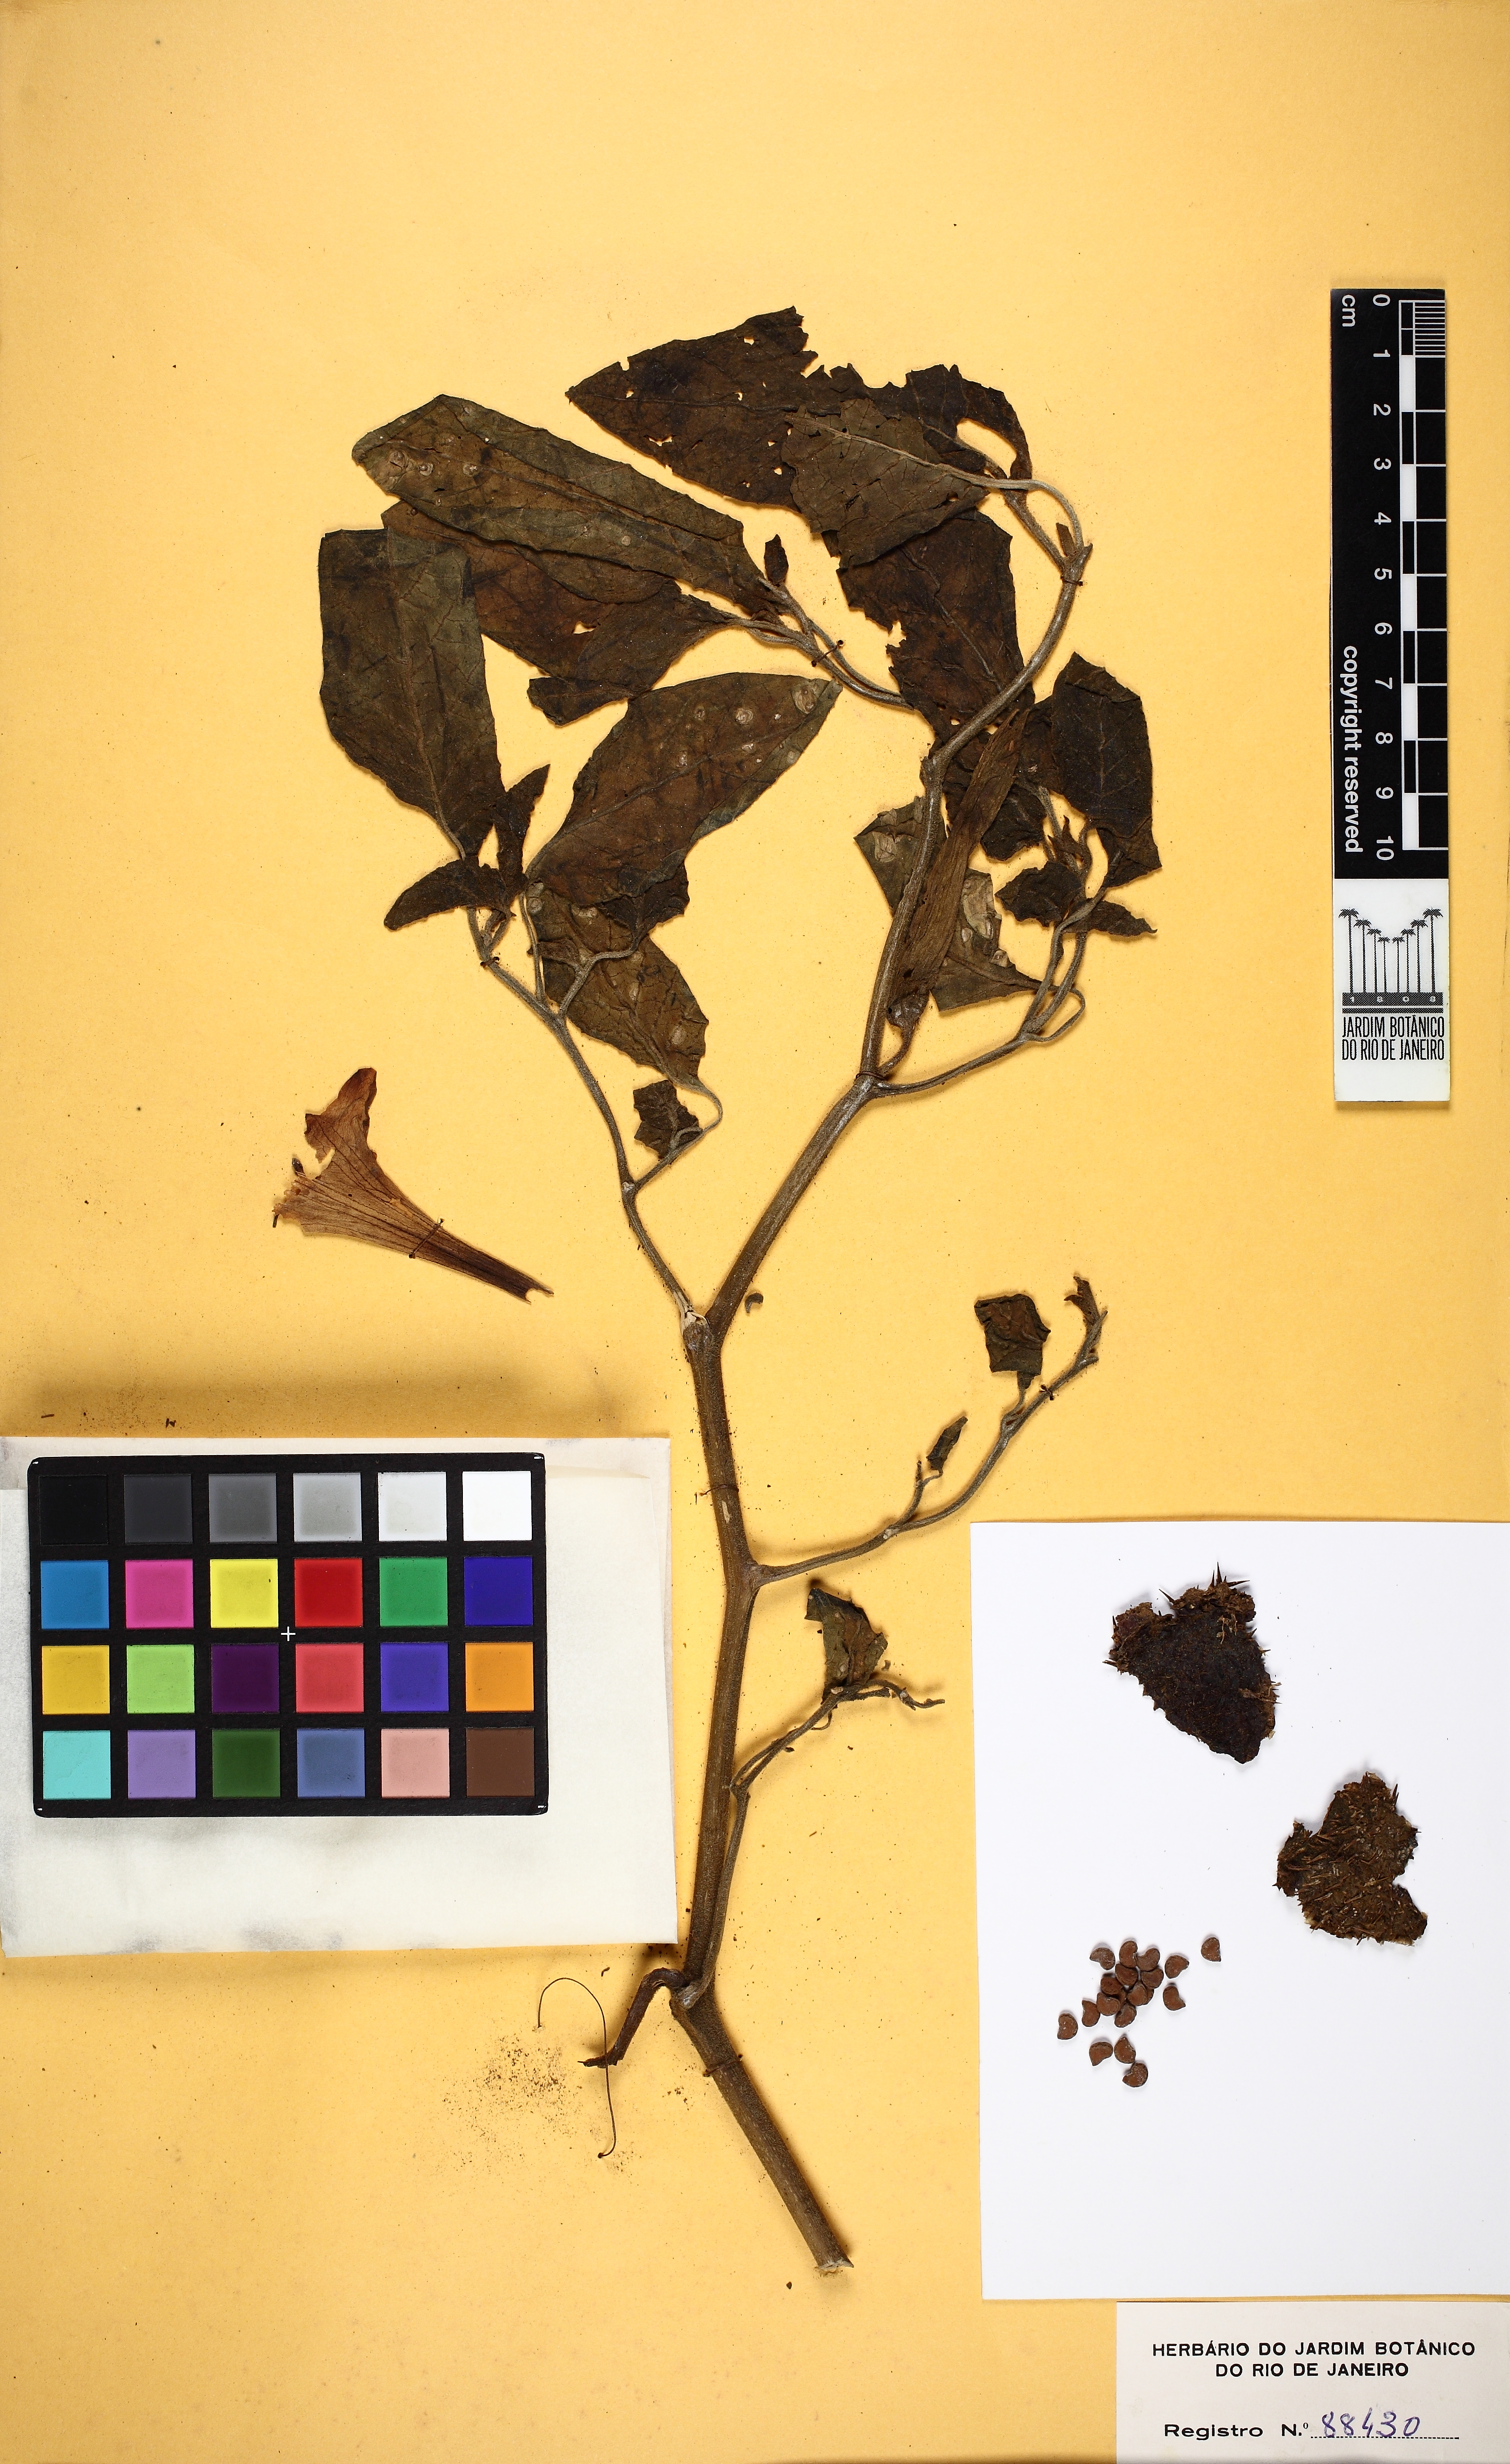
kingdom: Plantae
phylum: Tracheophyta
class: Magnoliopsida
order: Solanales
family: Solanaceae
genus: Datura
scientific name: Datura innoxia
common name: Downy thorn-apple
